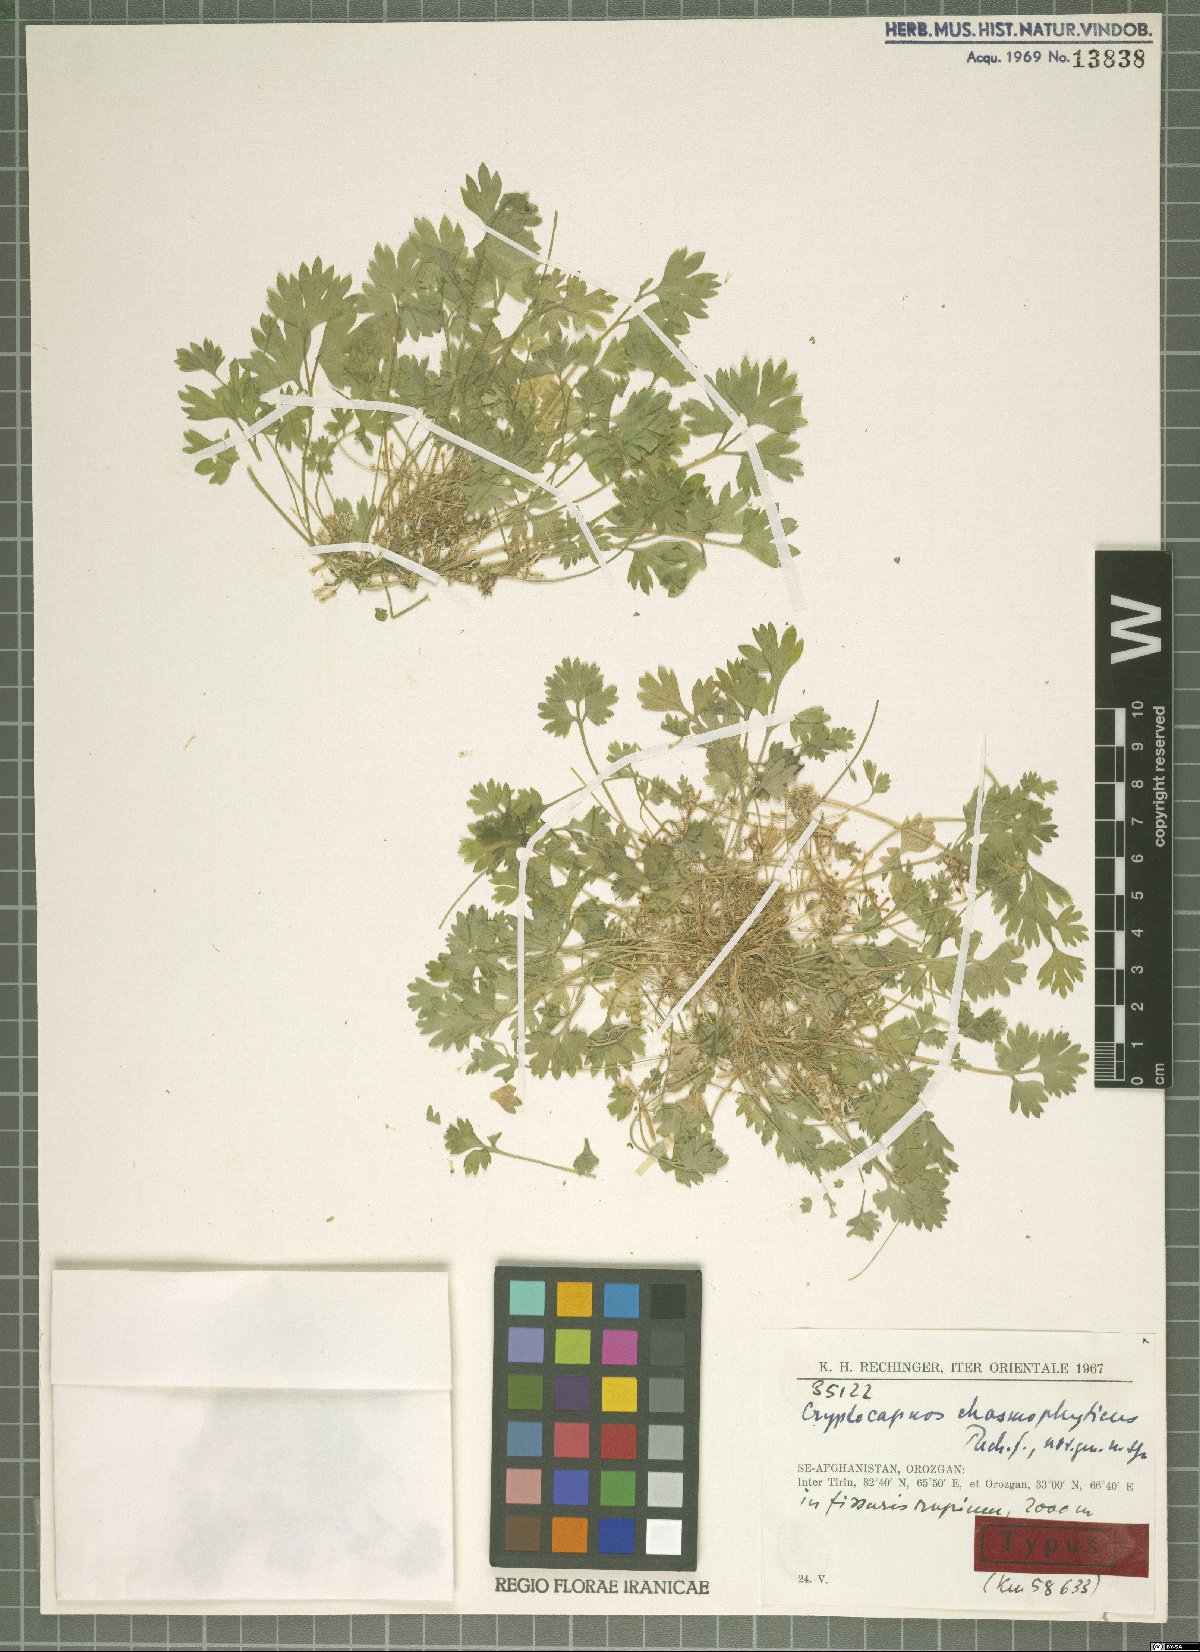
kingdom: Plantae
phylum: Tracheophyta
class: Magnoliopsida
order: Ranunculales
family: Papaveraceae
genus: Cryptocapnos
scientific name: Cryptocapnos chasmophytica
